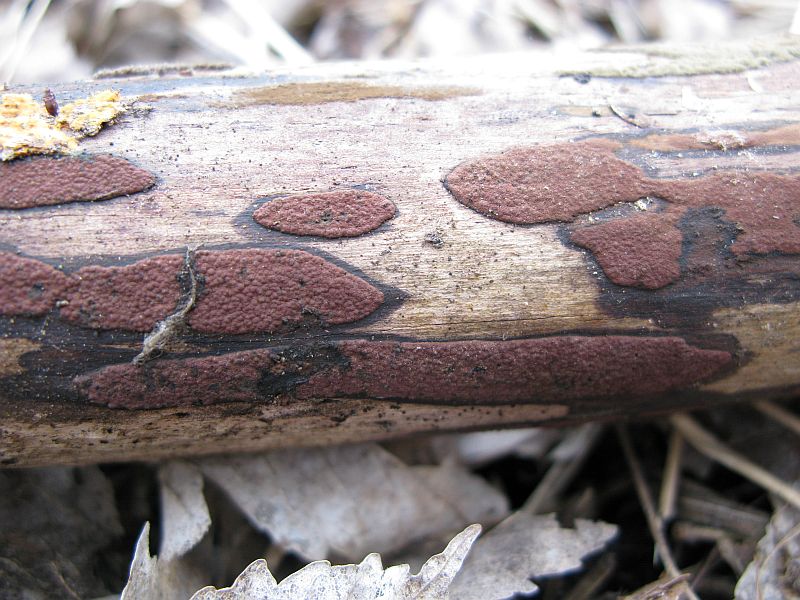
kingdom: Fungi
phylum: Ascomycota
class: Sordariomycetes
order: Xylariales
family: Hypoxylaceae
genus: Hypoxylon
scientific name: Hypoxylon macrocarpum
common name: skorpe-kulbær
